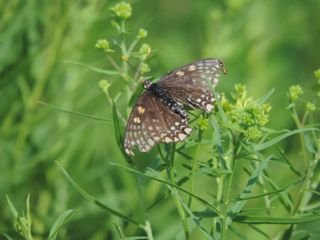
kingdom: Animalia
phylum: Arthropoda
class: Insecta
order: Lepidoptera
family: Nymphalidae
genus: Euphydryas
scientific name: Euphydryas phaeton
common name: Baltimore Checkerspot
